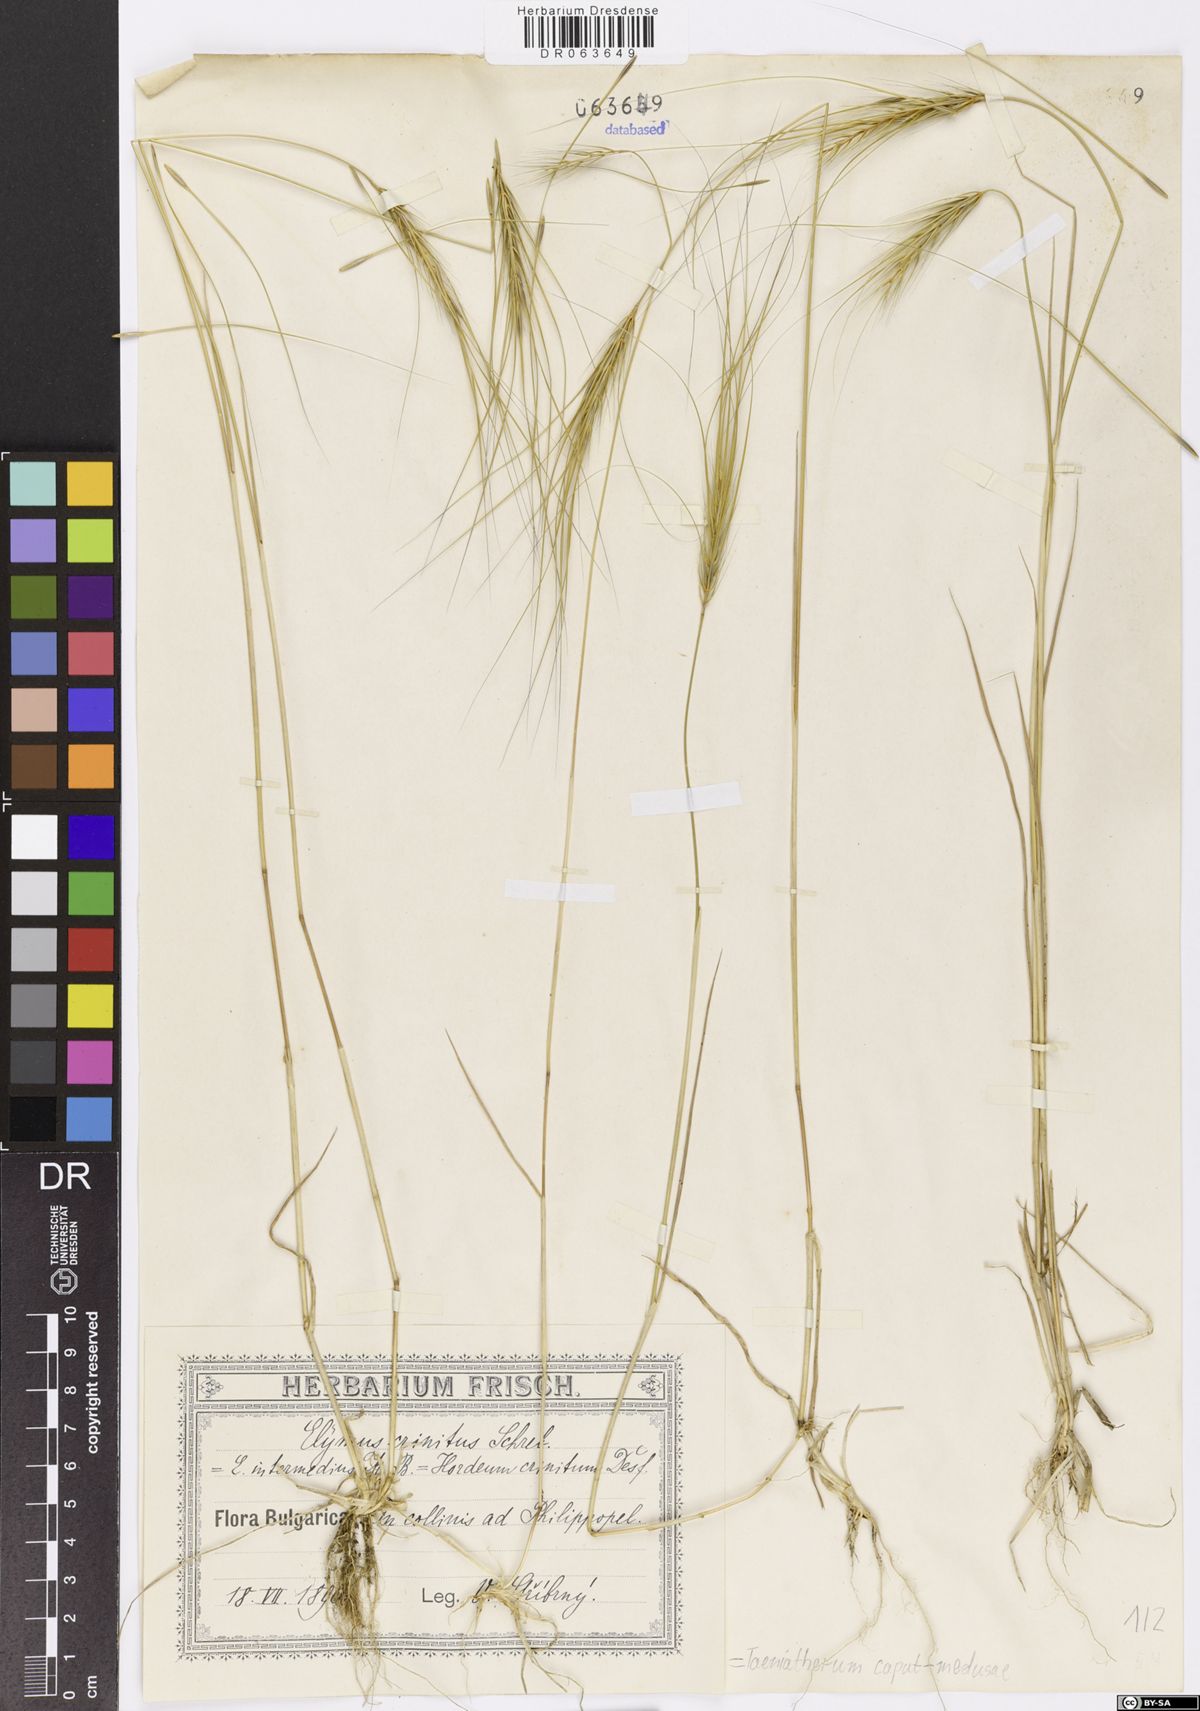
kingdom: Plantae
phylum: Tracheophyta
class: Liliopsida
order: Poales
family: Poaceae
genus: Taeniatherum
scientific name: Taeniatherum caput-medusae
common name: Medusahead
